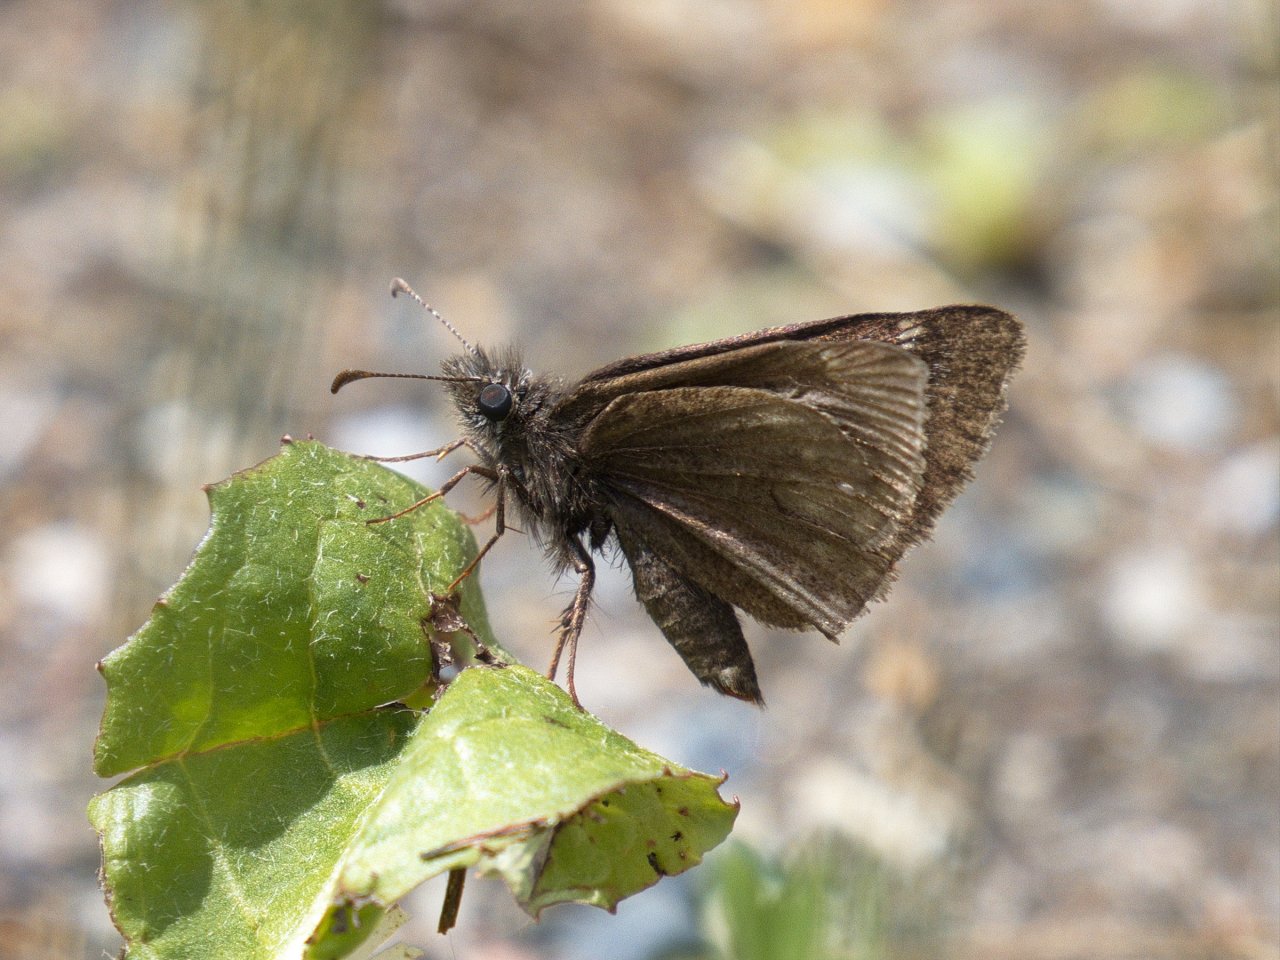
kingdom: Animalia
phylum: Arthropoda
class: Insecta
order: Lepidoptera
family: Hesperiidae
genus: Erynnis
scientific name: Erynnis
